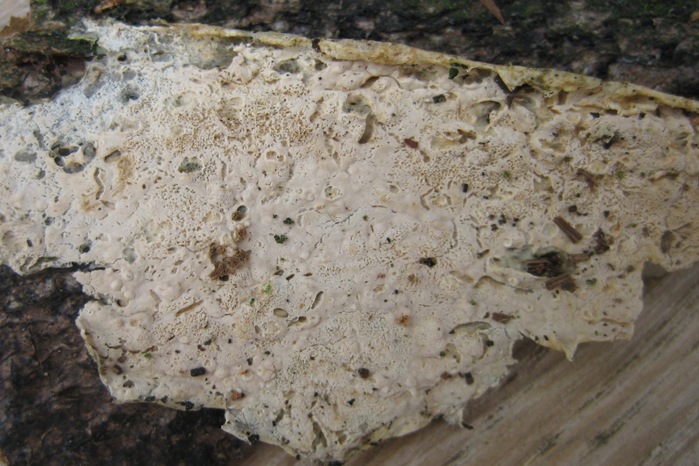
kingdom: Fungi
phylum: Basidiomycota
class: Agaricomycetes
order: Corticiales
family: Corticiaceae
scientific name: Corticiaceae
